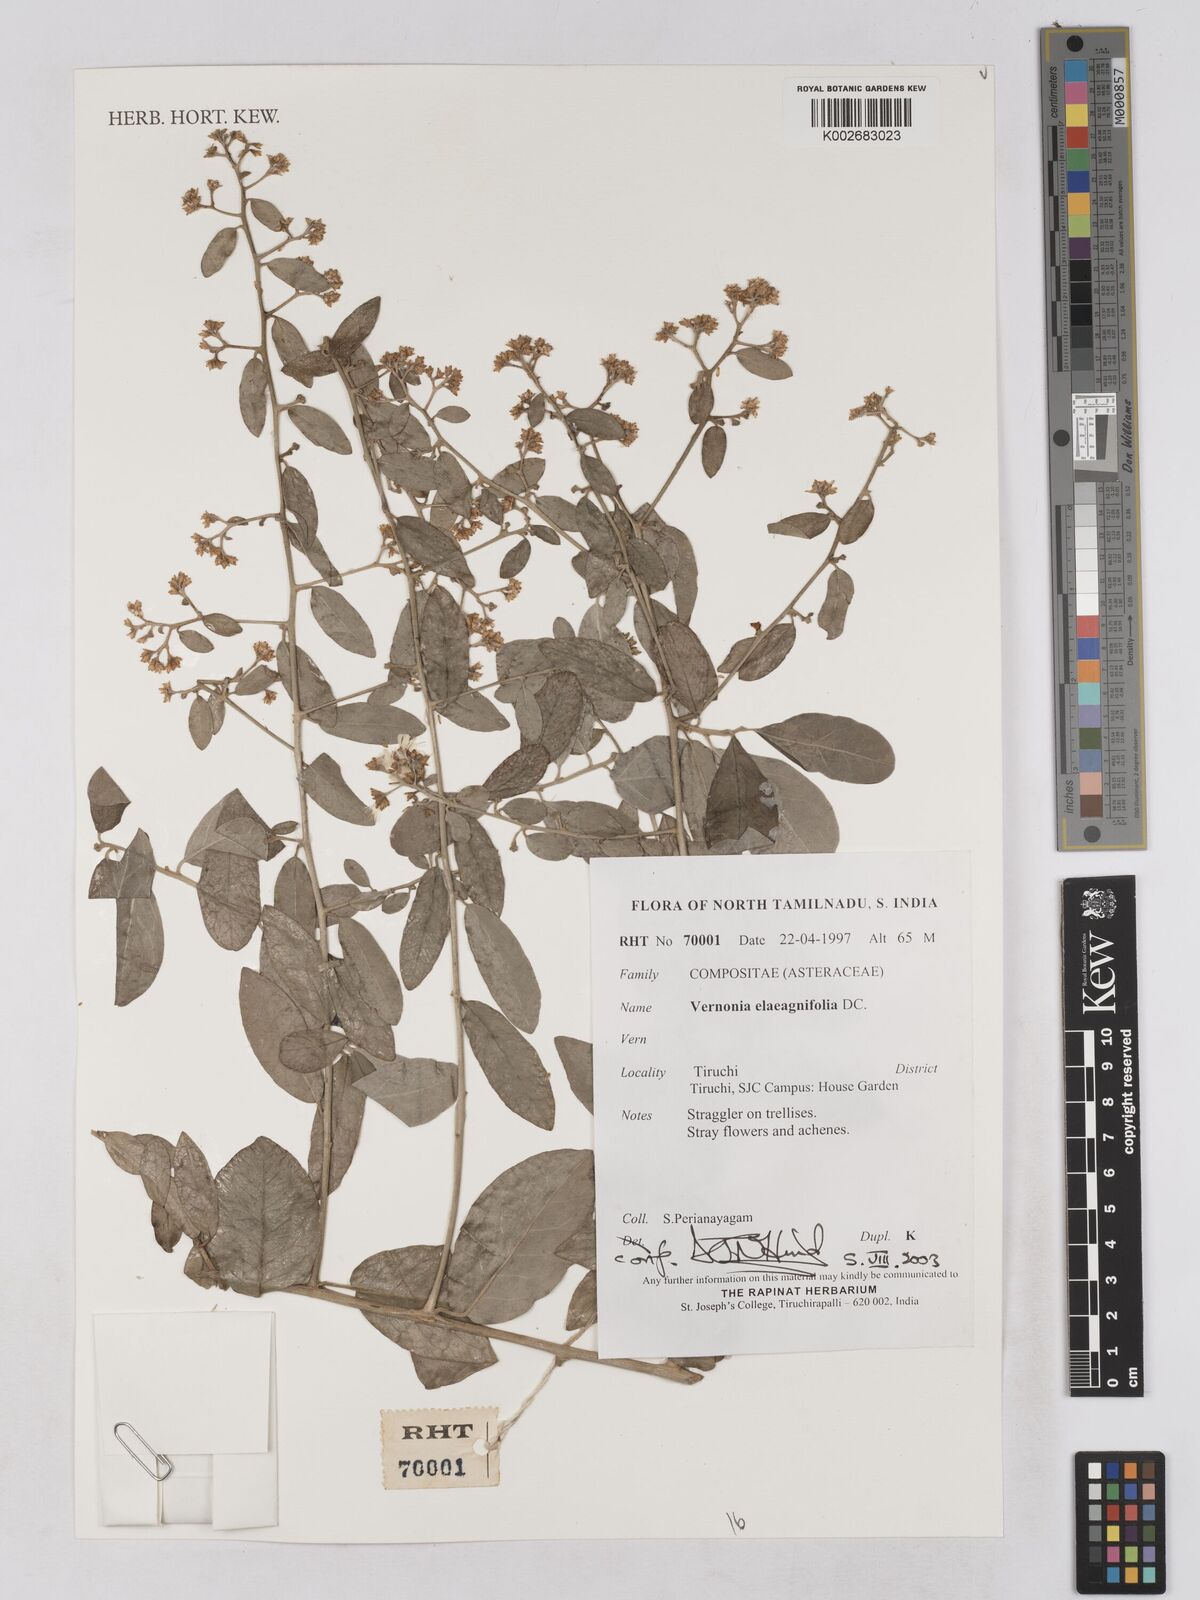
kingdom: Plantae
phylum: Tracheophyta
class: Magnoliopsida
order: Asterales
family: Asteraceae
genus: Tarlmounia
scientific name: Tarlmounia elliptica
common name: Kheua sa lot
